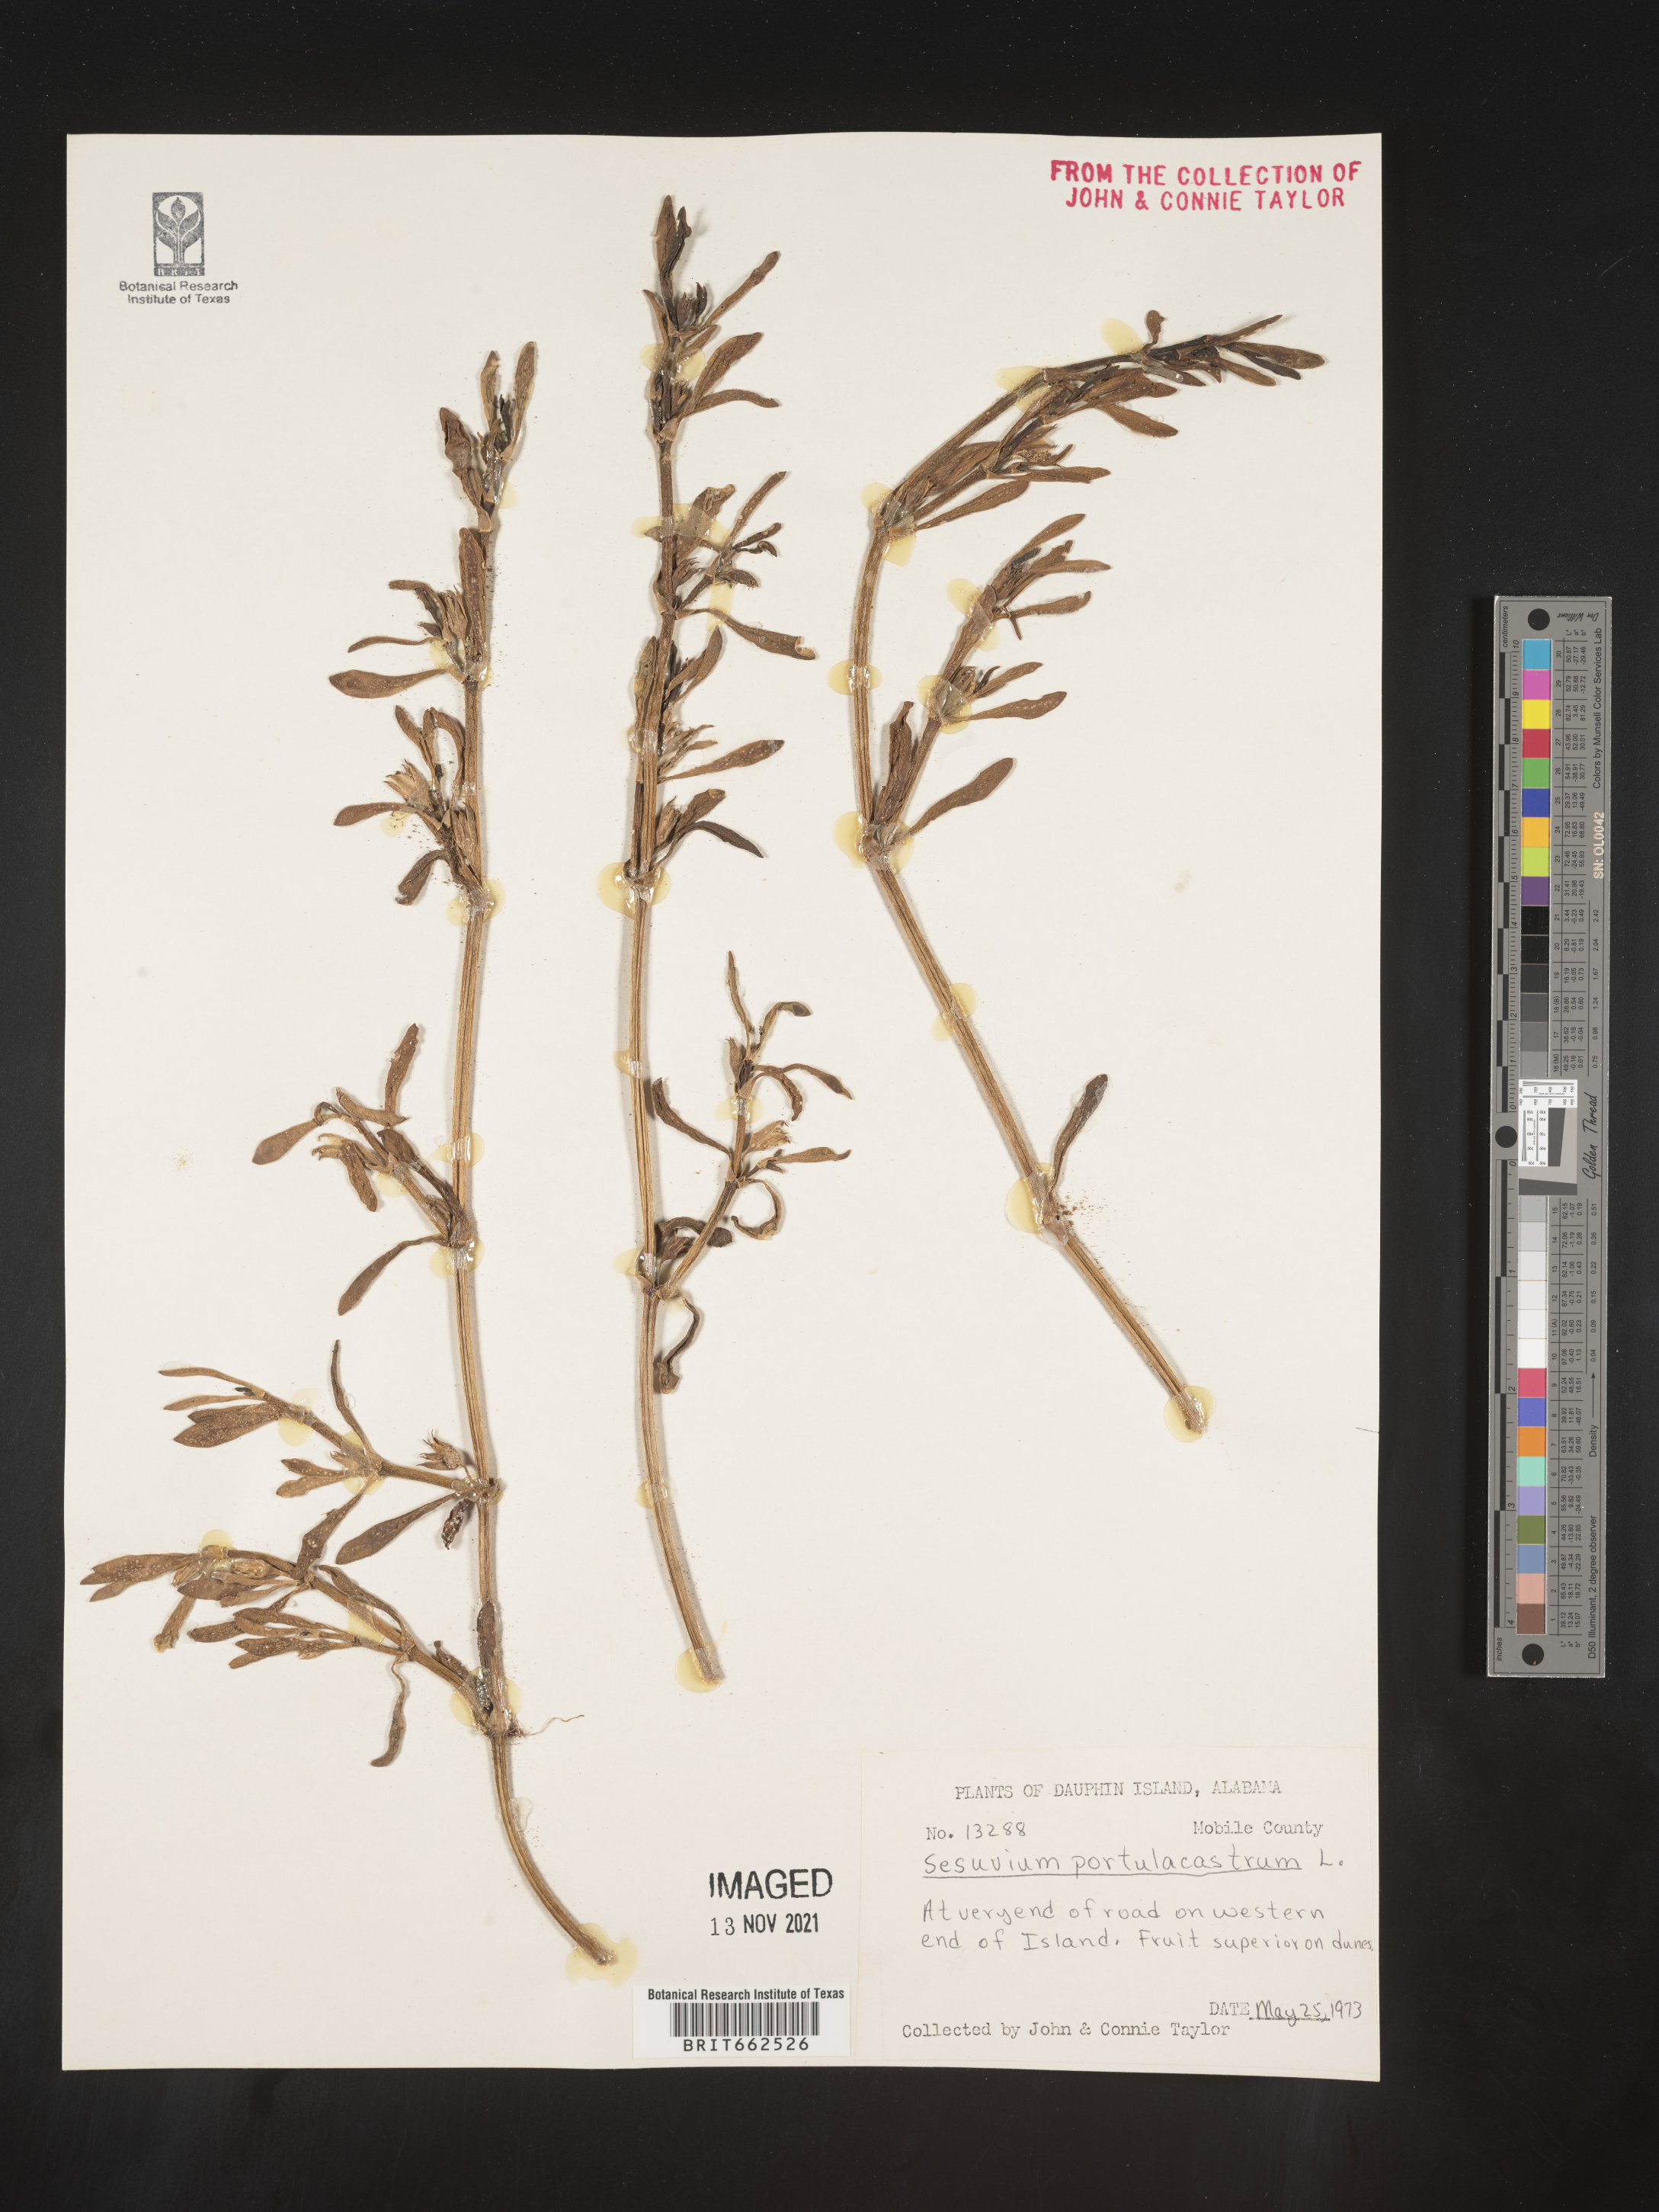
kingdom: Plantae
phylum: Tracheophyta
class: Magnoliopsida
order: Caryophyllales
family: Aizoaceae
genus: Sesuvium
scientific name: Sesuvium portulacastrum
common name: Sea-purslane
